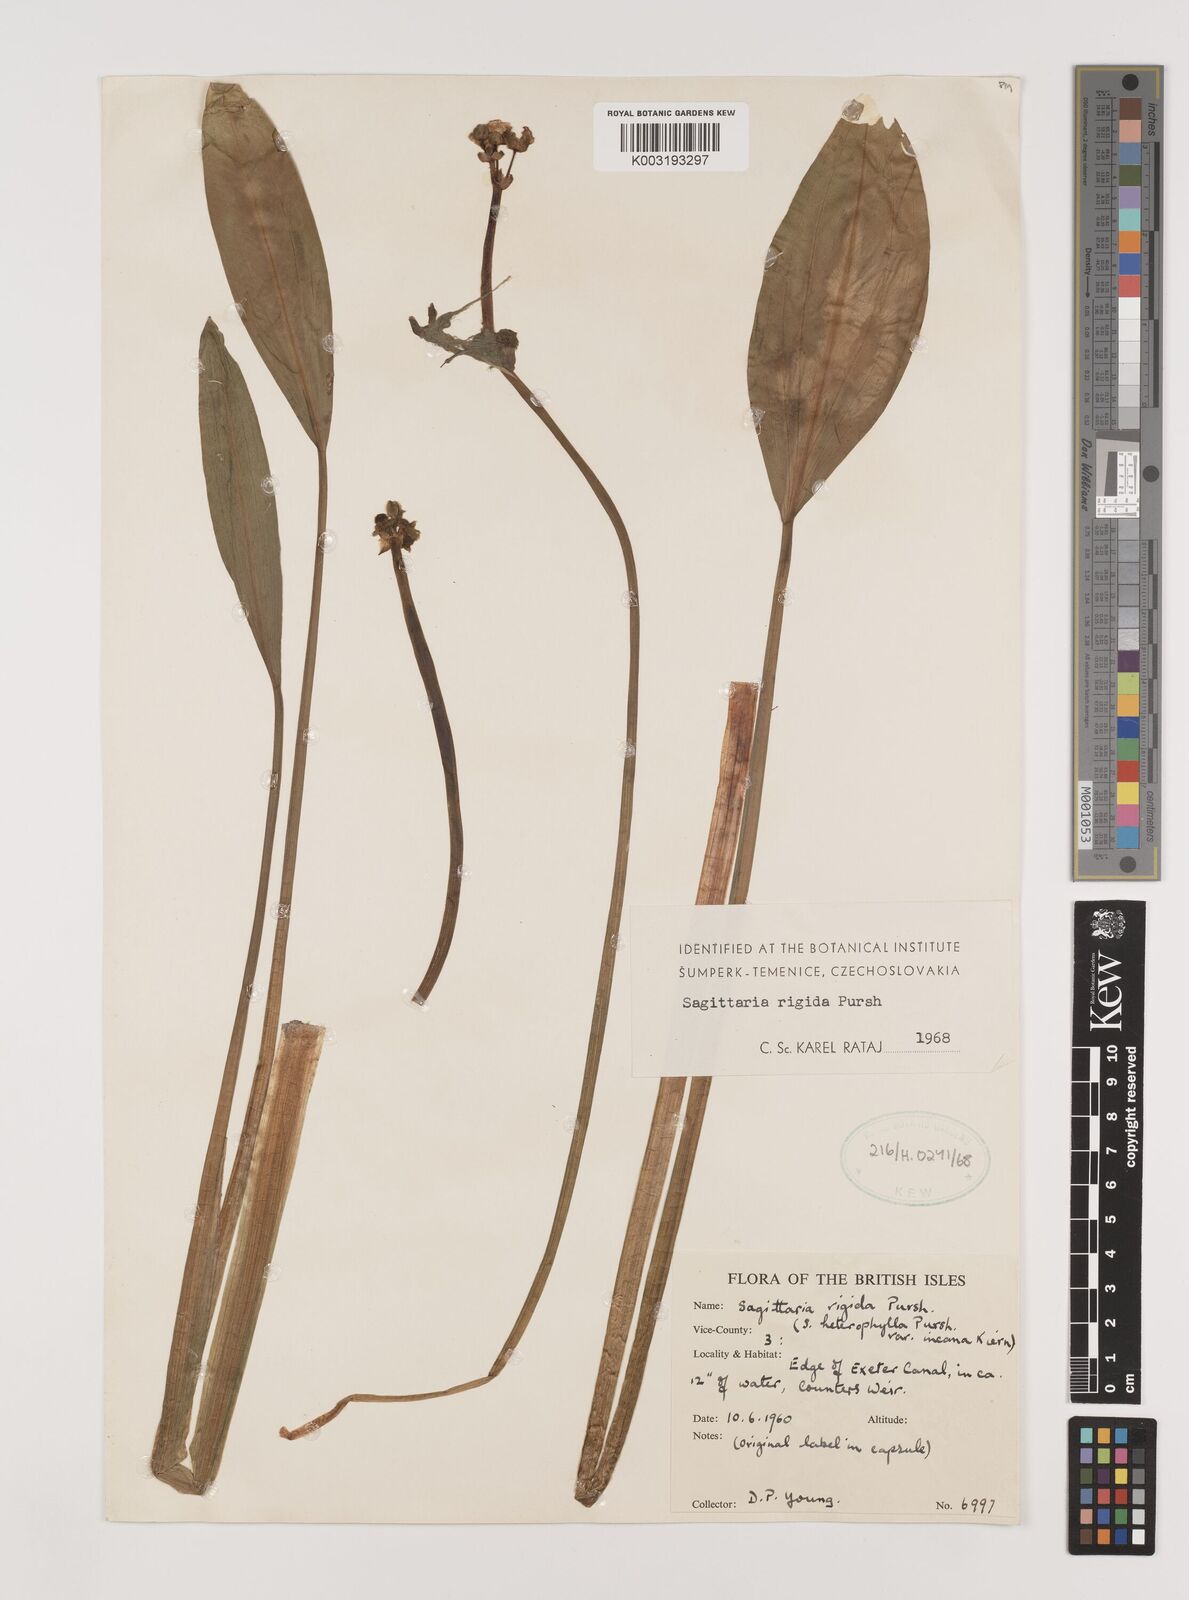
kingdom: Plantae
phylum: Tracheophyta
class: Liliopsida
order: Alismatales
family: Alismataceae
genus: Sagittaria
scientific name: Sagittaria rigida
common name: Canadian arrowhead
